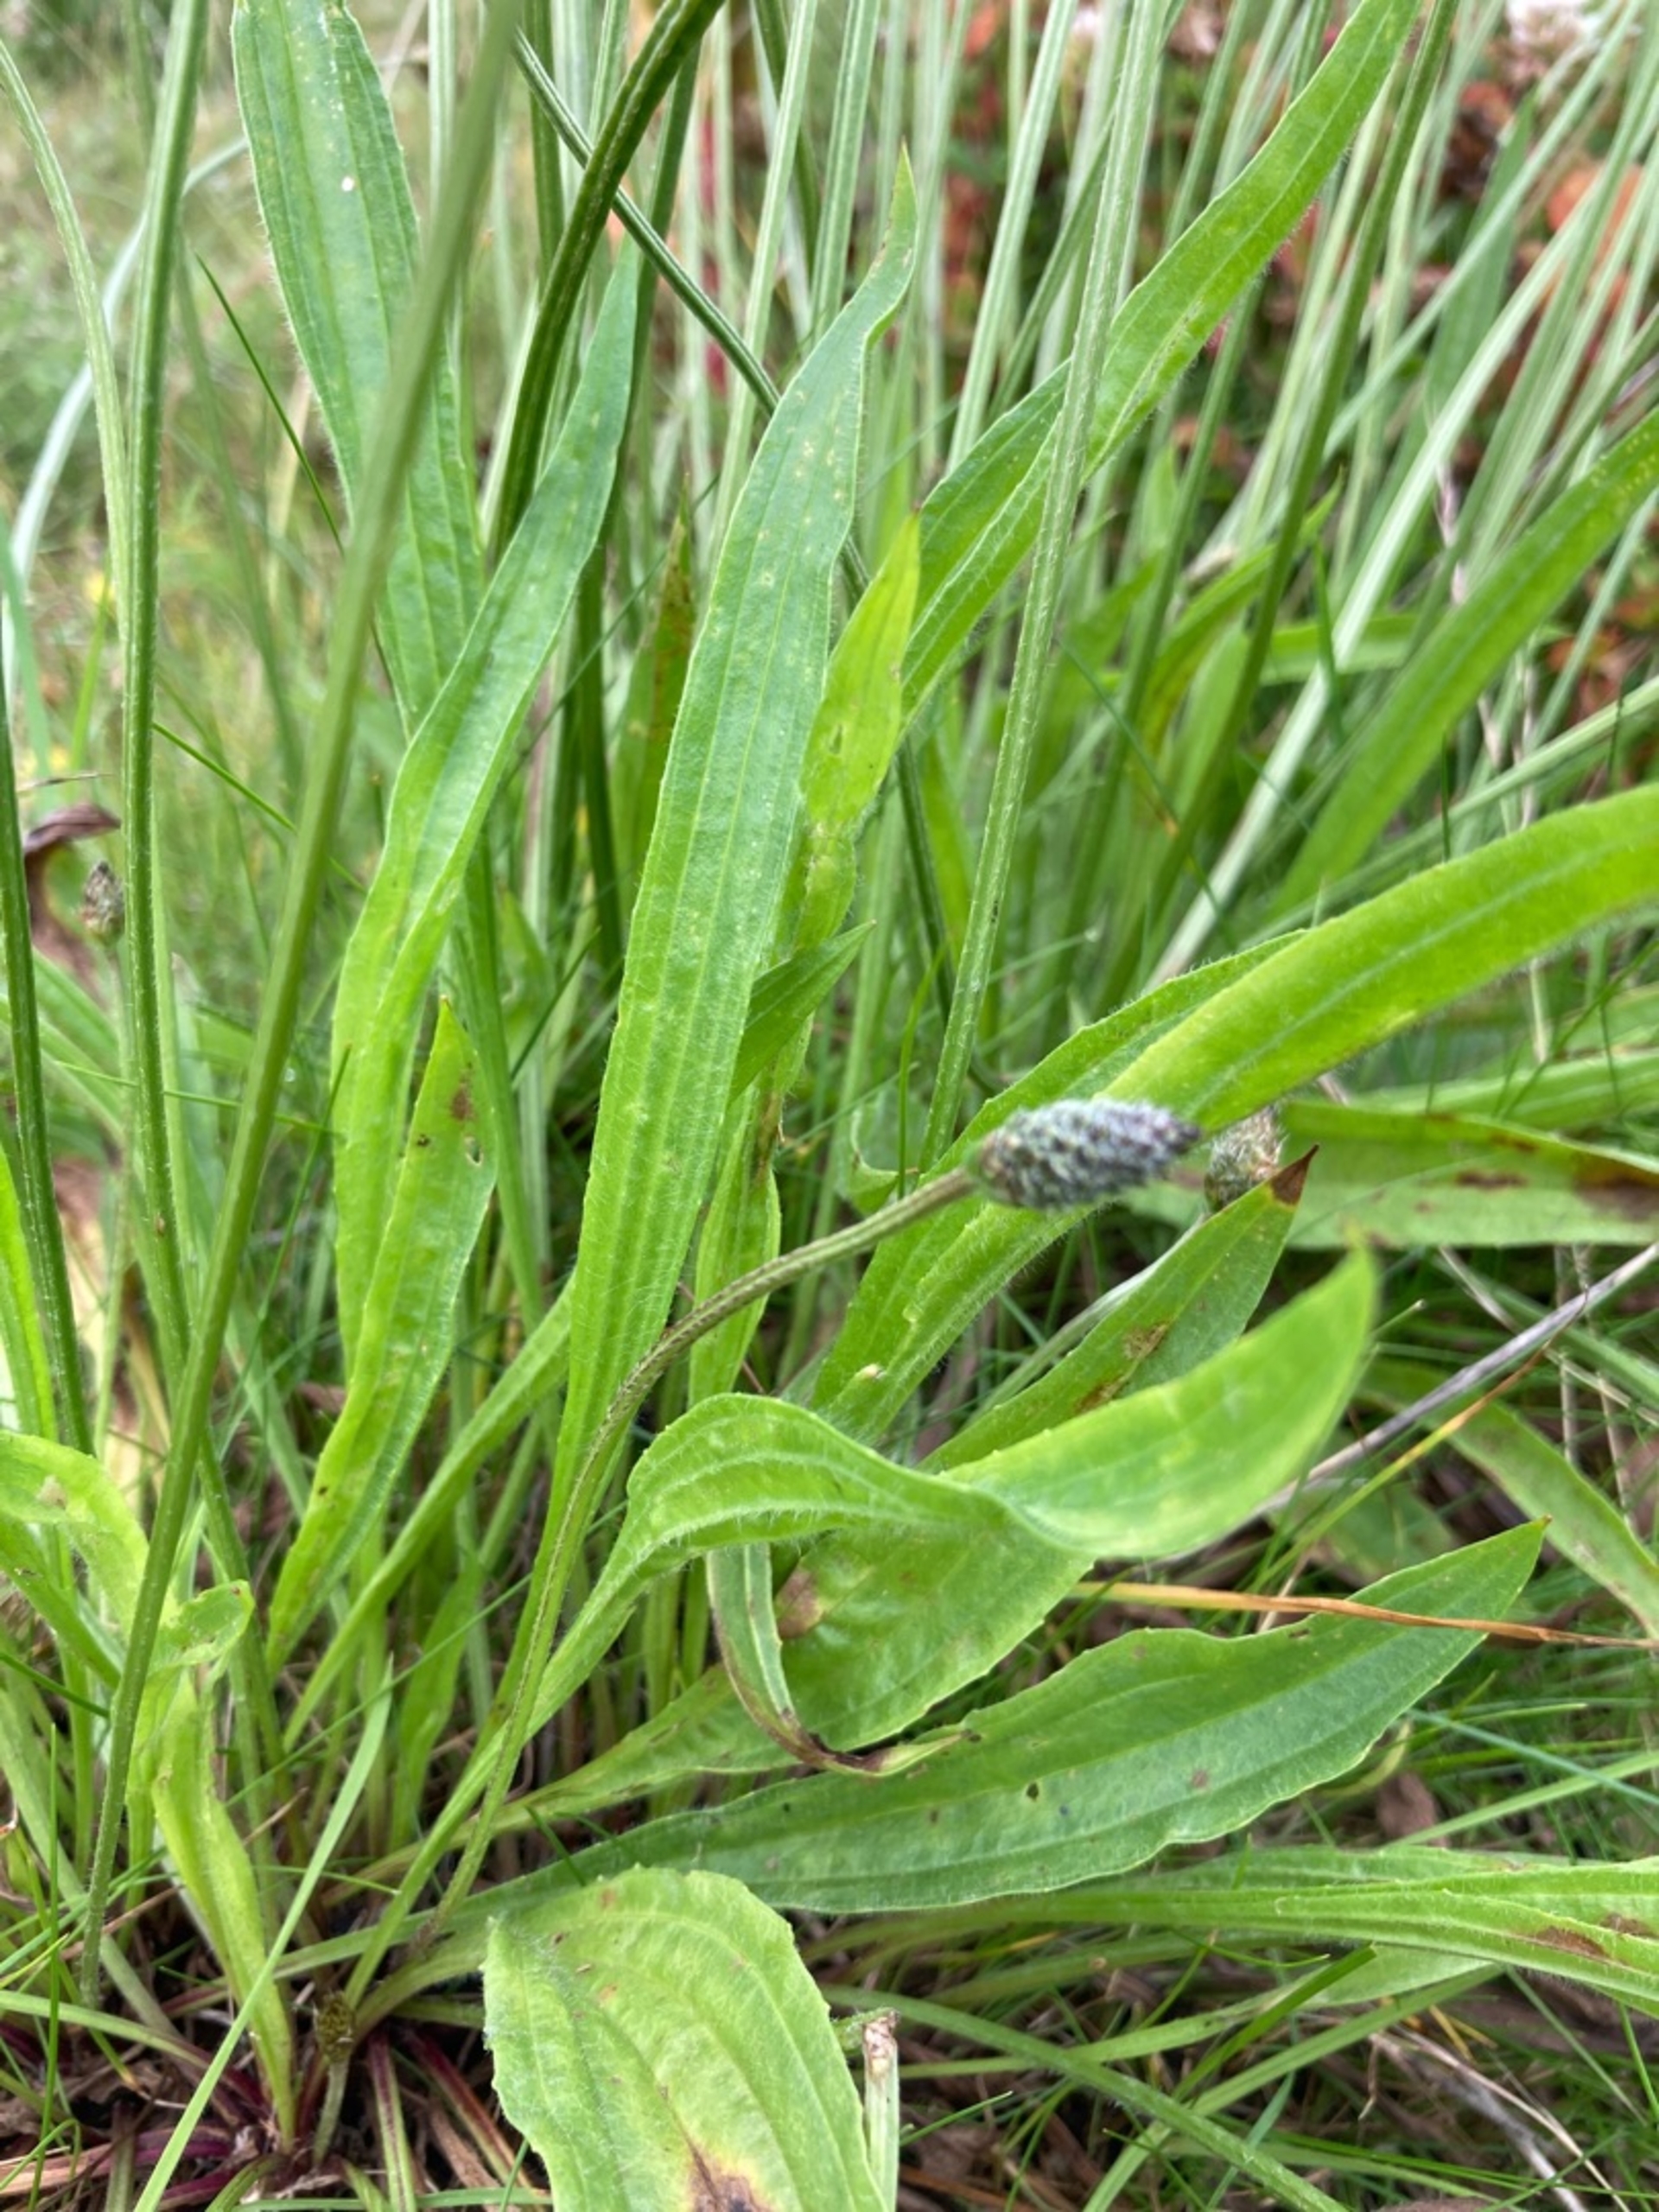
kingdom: Plantae
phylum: Tracheophyta
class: Magnoliopsida
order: Lamiales
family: Plantaginaceae
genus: Plantago
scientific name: Plantago lanceolata
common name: Lancet-vejbred
